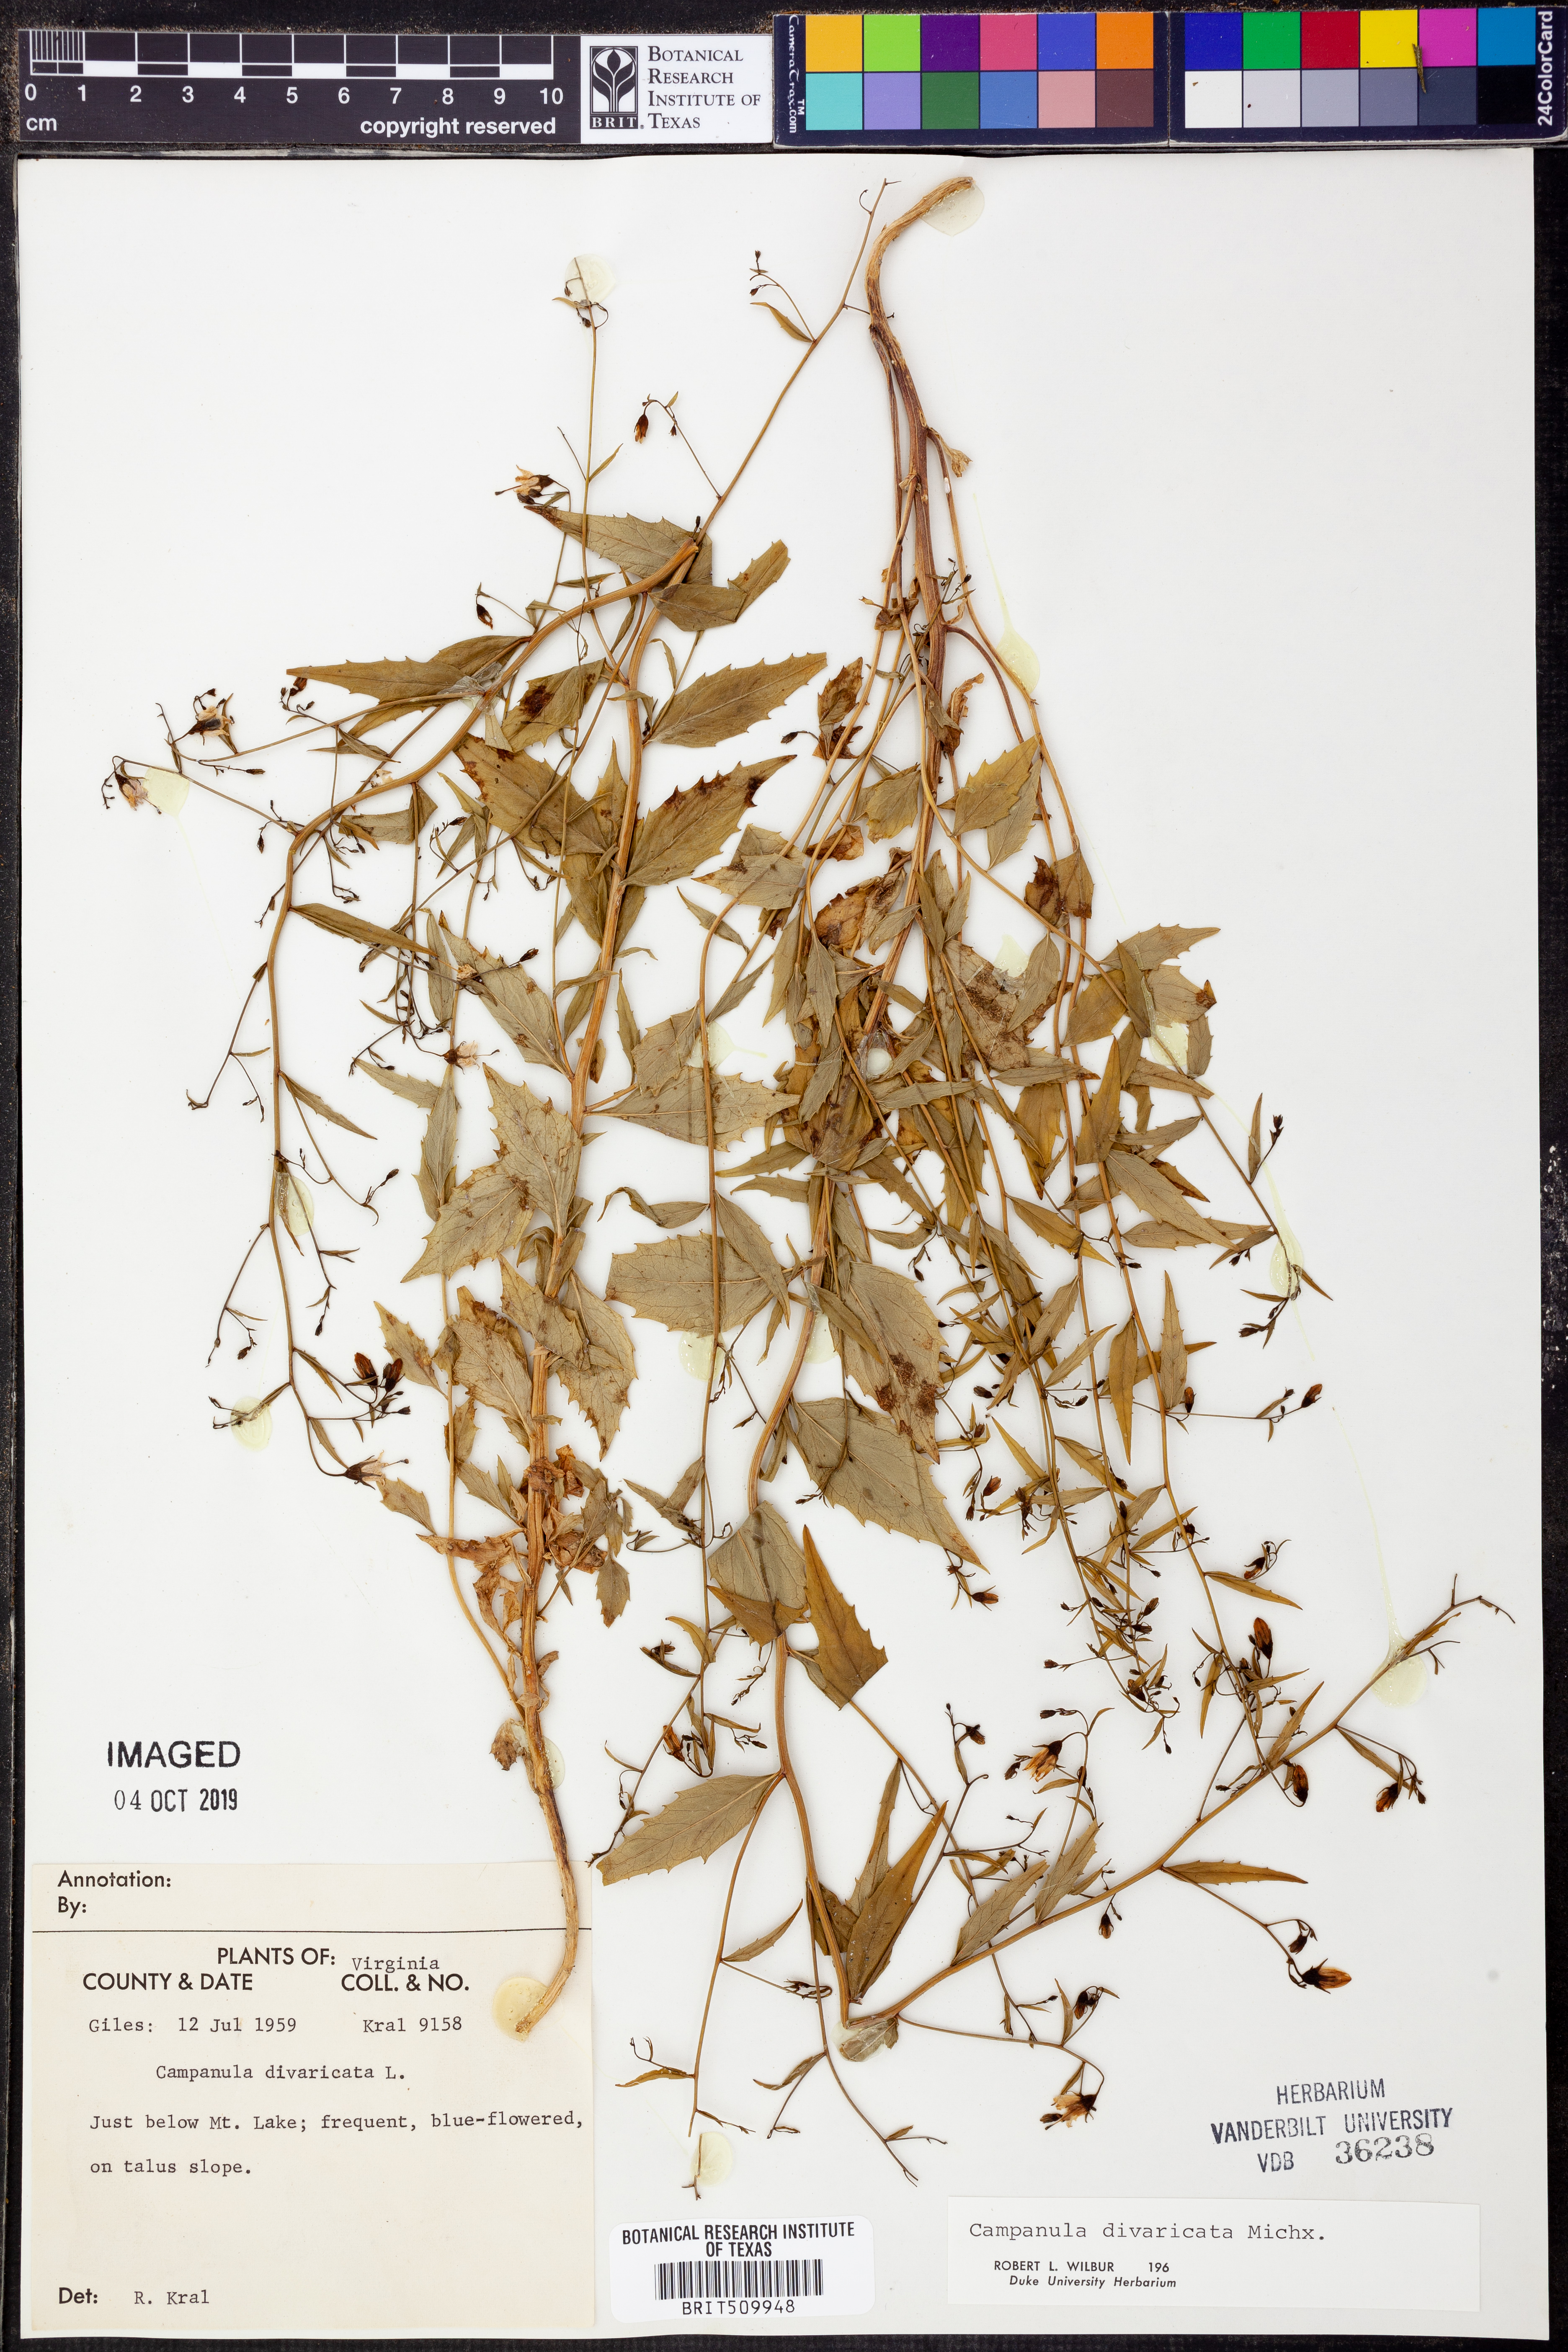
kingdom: Plantae
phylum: Tracheophyta
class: Magnoliopsida
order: Asterales
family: Campanulaceae
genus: Campanula
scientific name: Campanula divaricata
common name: Appalachian bellflower
